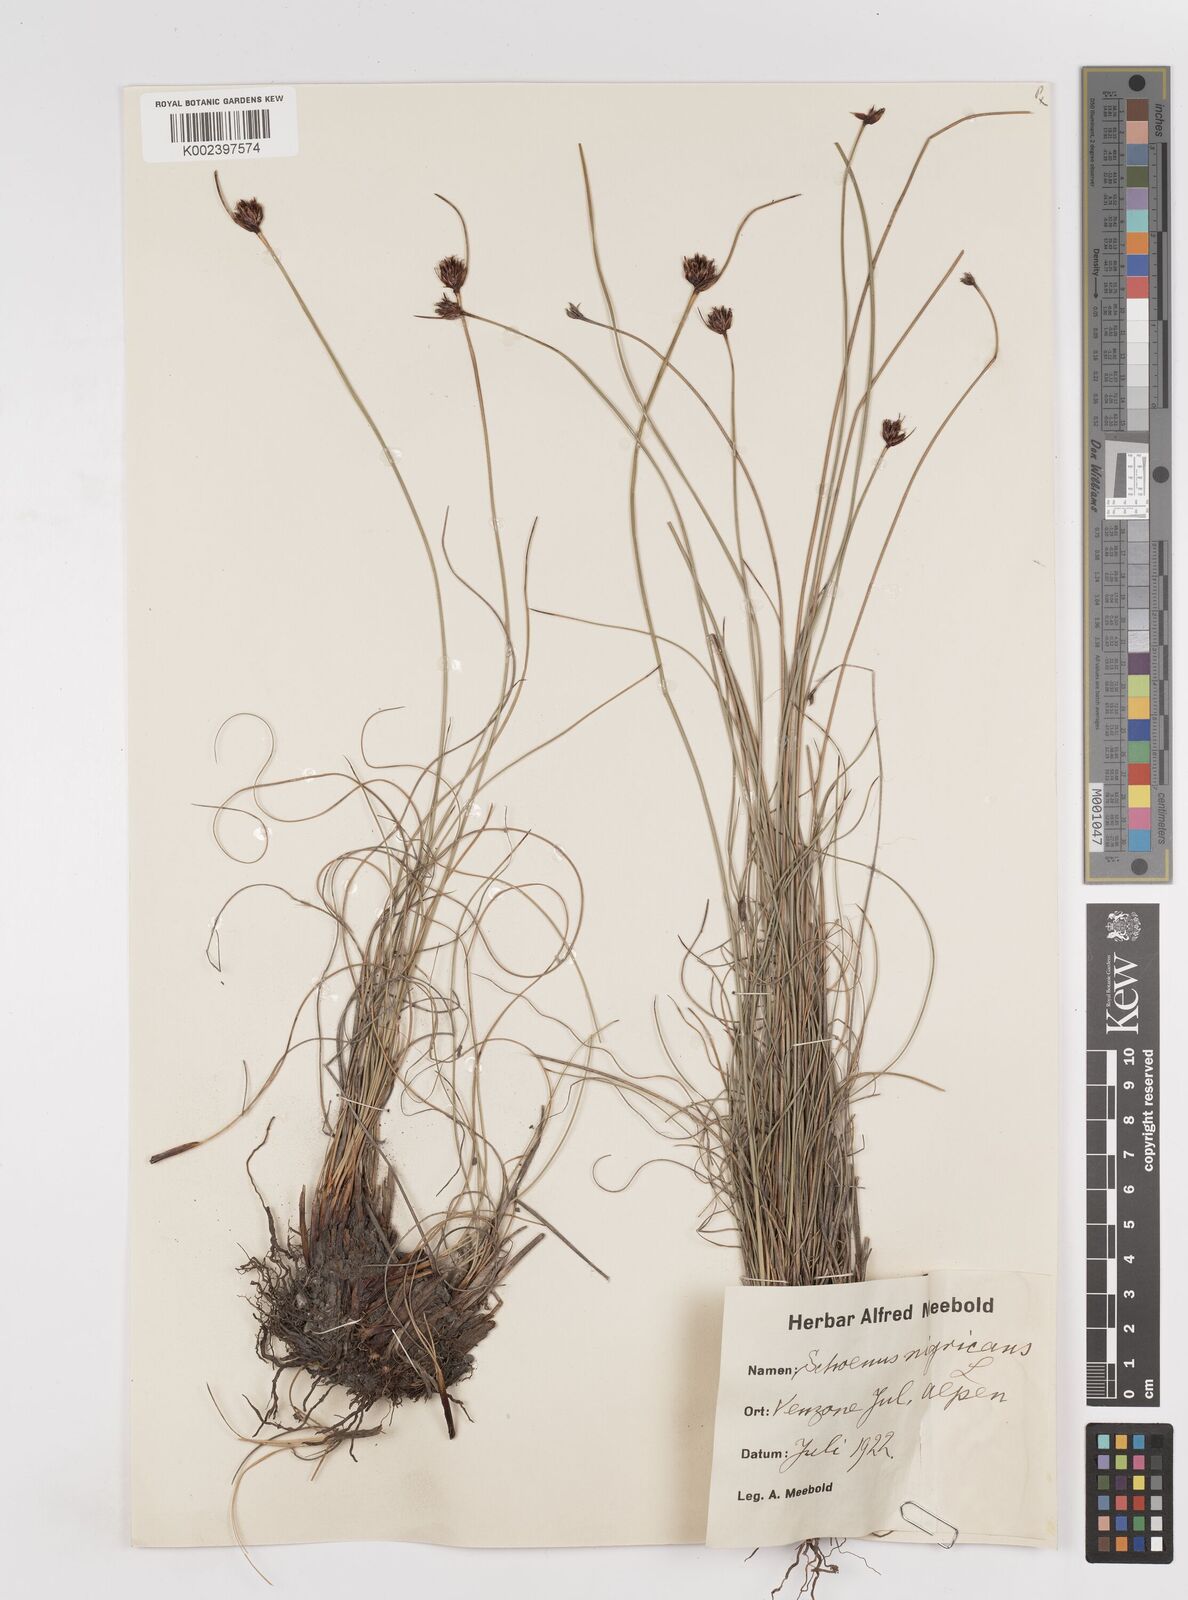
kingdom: Plantae
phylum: Tracheophyta
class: Liliopsida
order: Poales
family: Cyperaceae
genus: Schoenus
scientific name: Schoenus nigricans
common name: Black bog-rush
